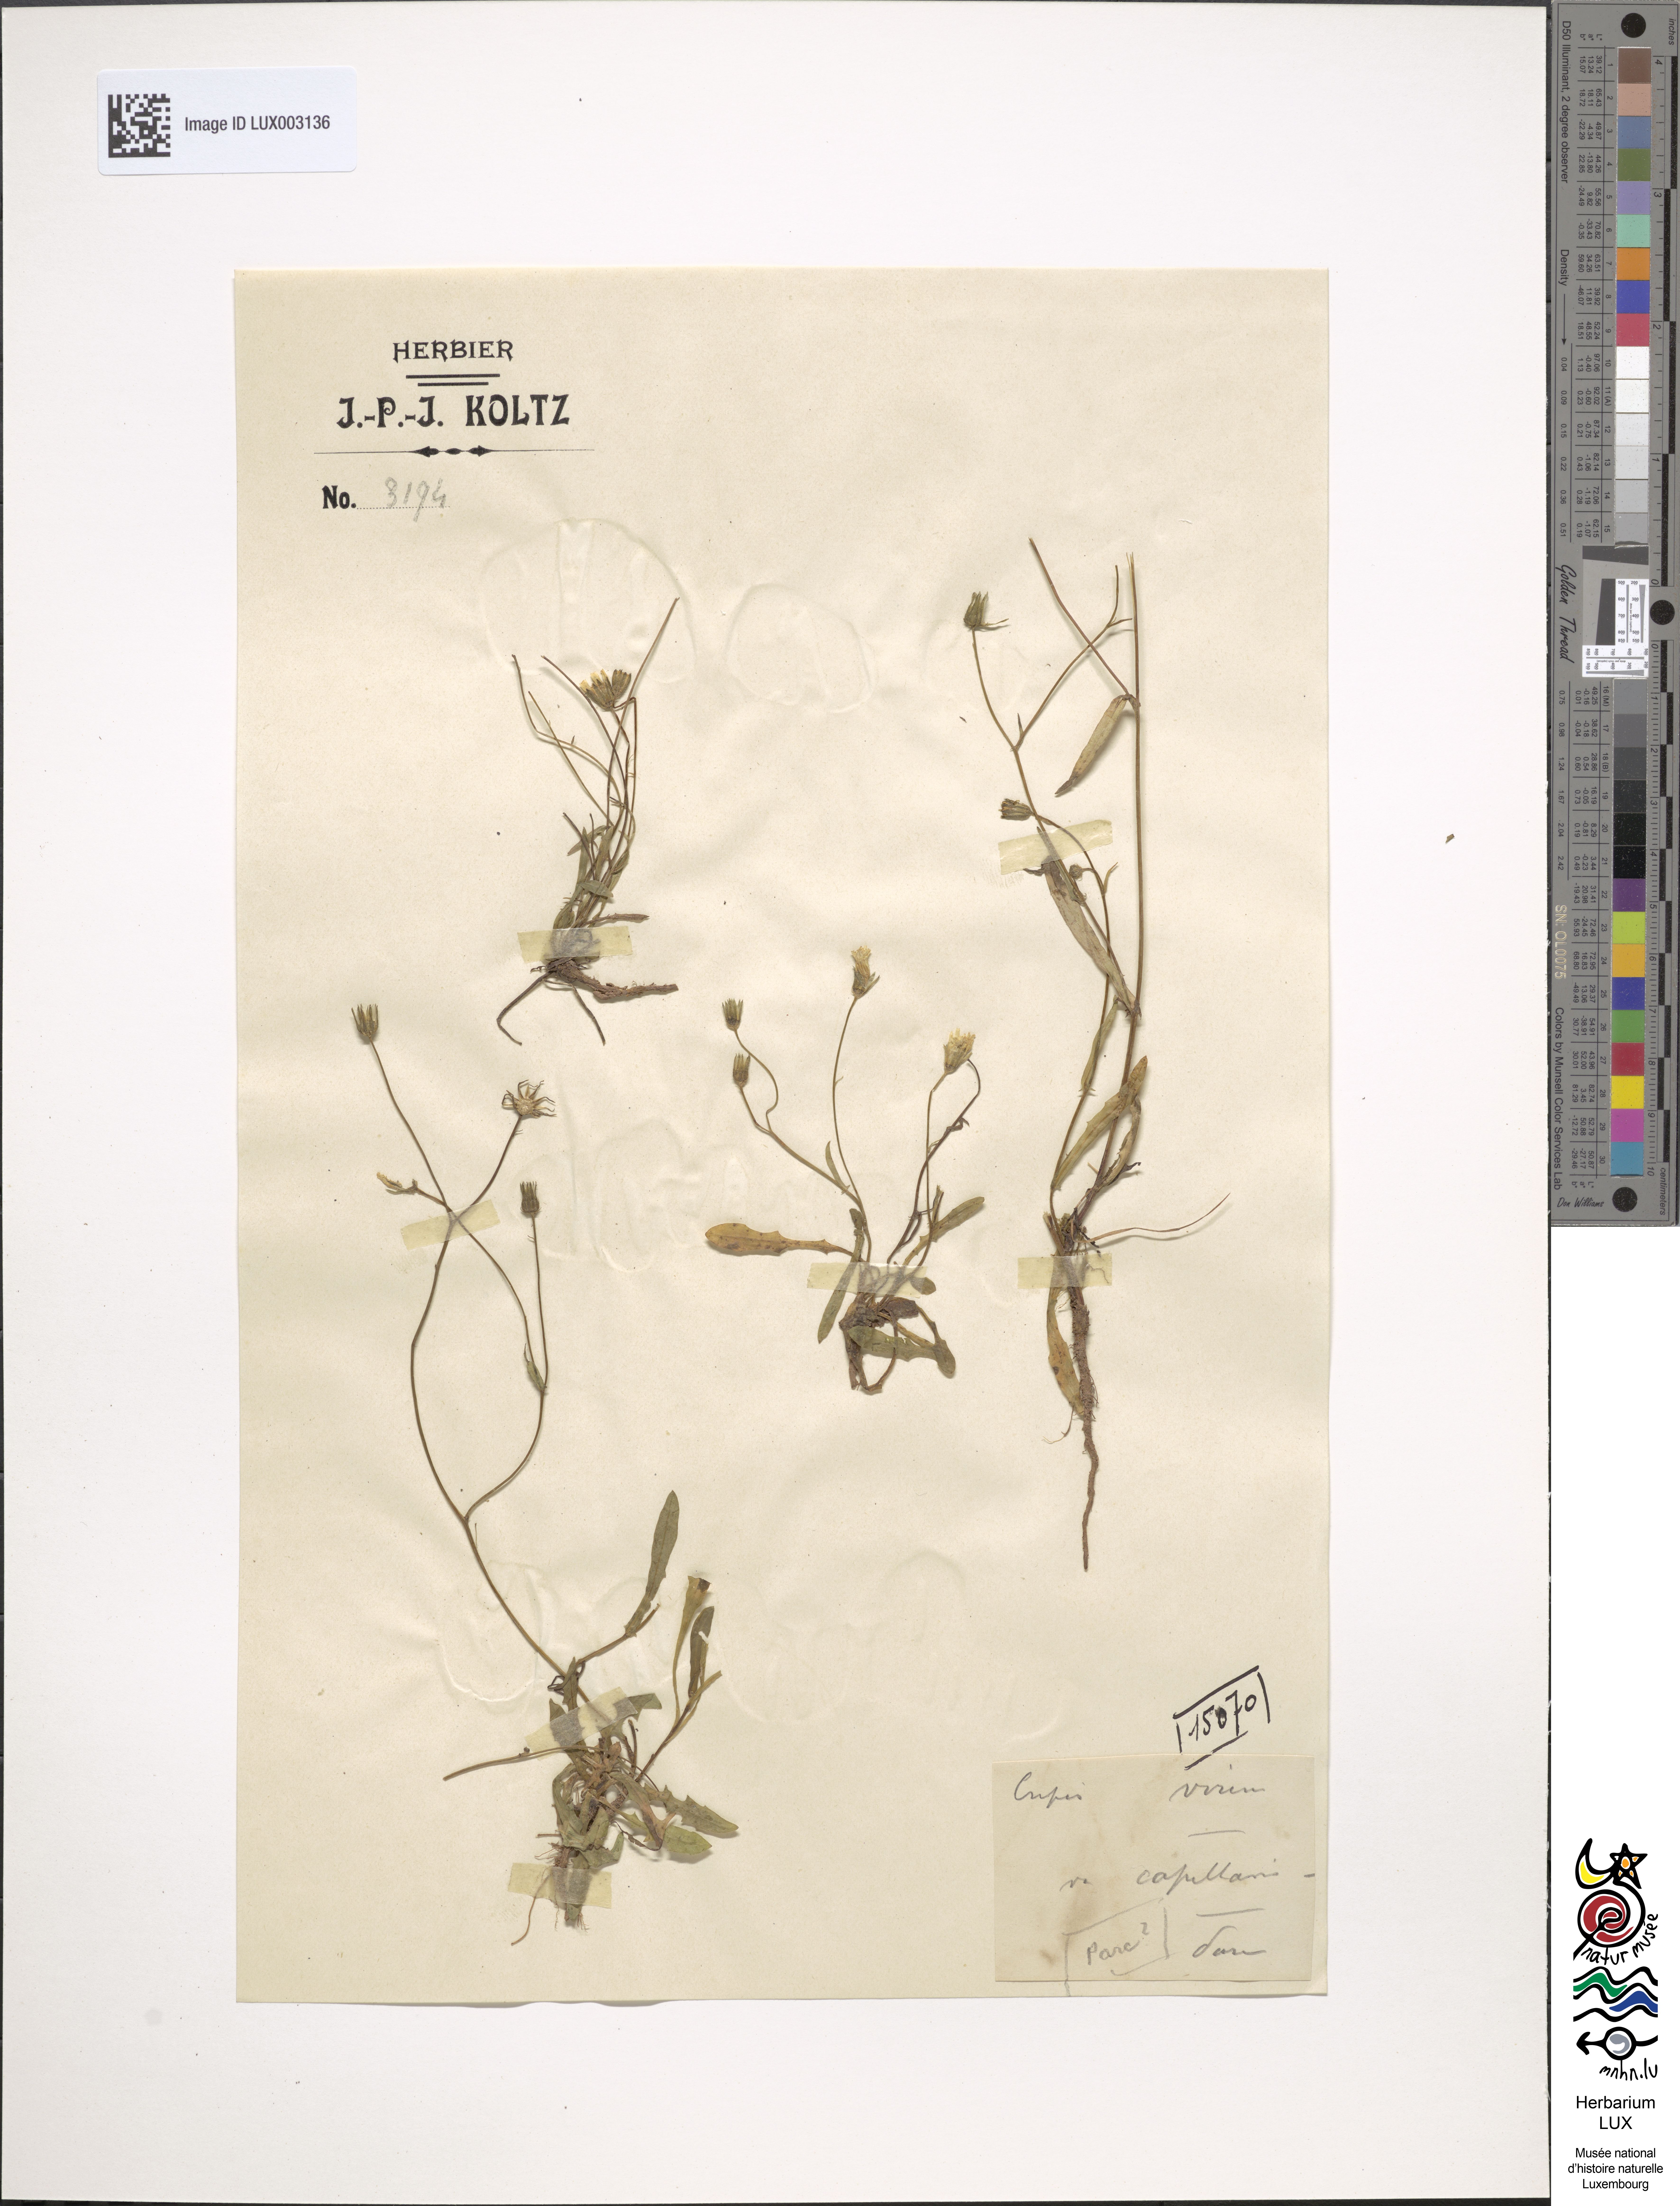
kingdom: Plantae
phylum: Tracheophyta
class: Magnoliopsida
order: Asterales
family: Asteraceae
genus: Crepis
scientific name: Crepis capillaris
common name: Smooth hawksbeard
